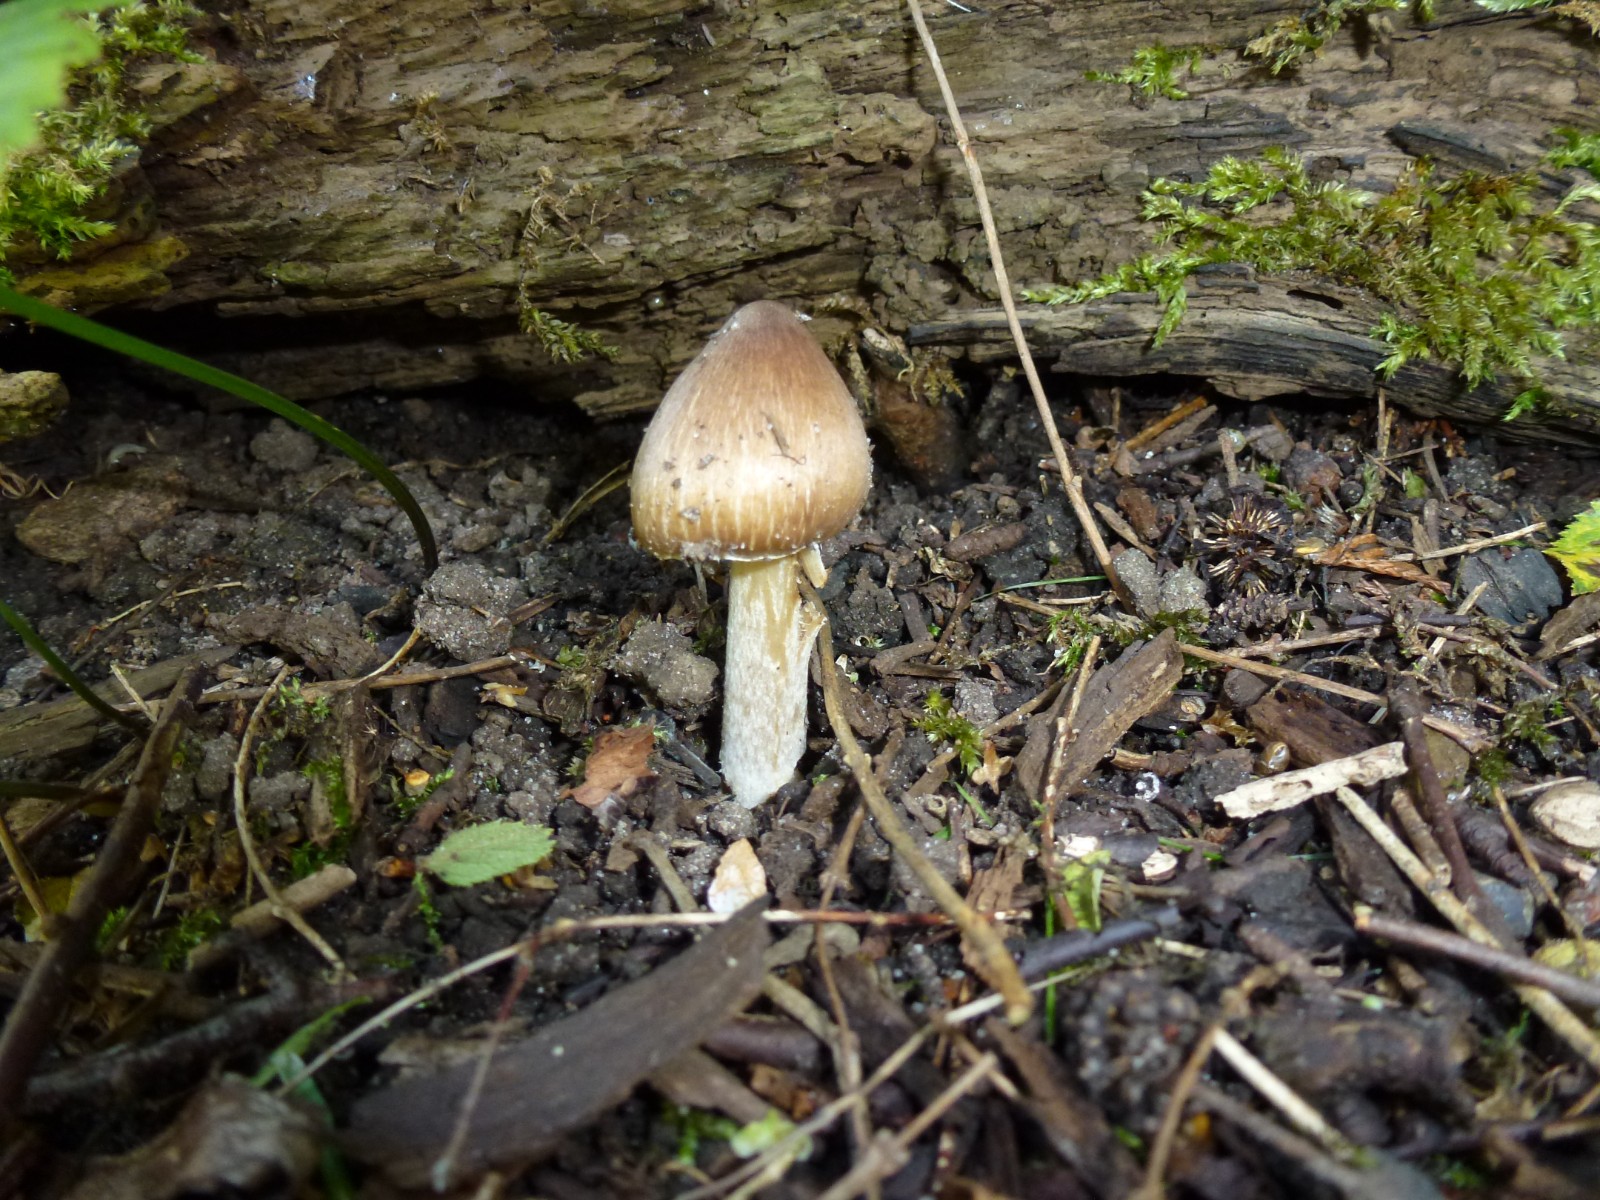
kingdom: Fungi
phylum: Basidiomycota
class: Agaricomycetes
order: Agaricales
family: Inocybaceae
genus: Inosperma
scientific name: Inosperma adaequatum
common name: vinrød trævlhat
